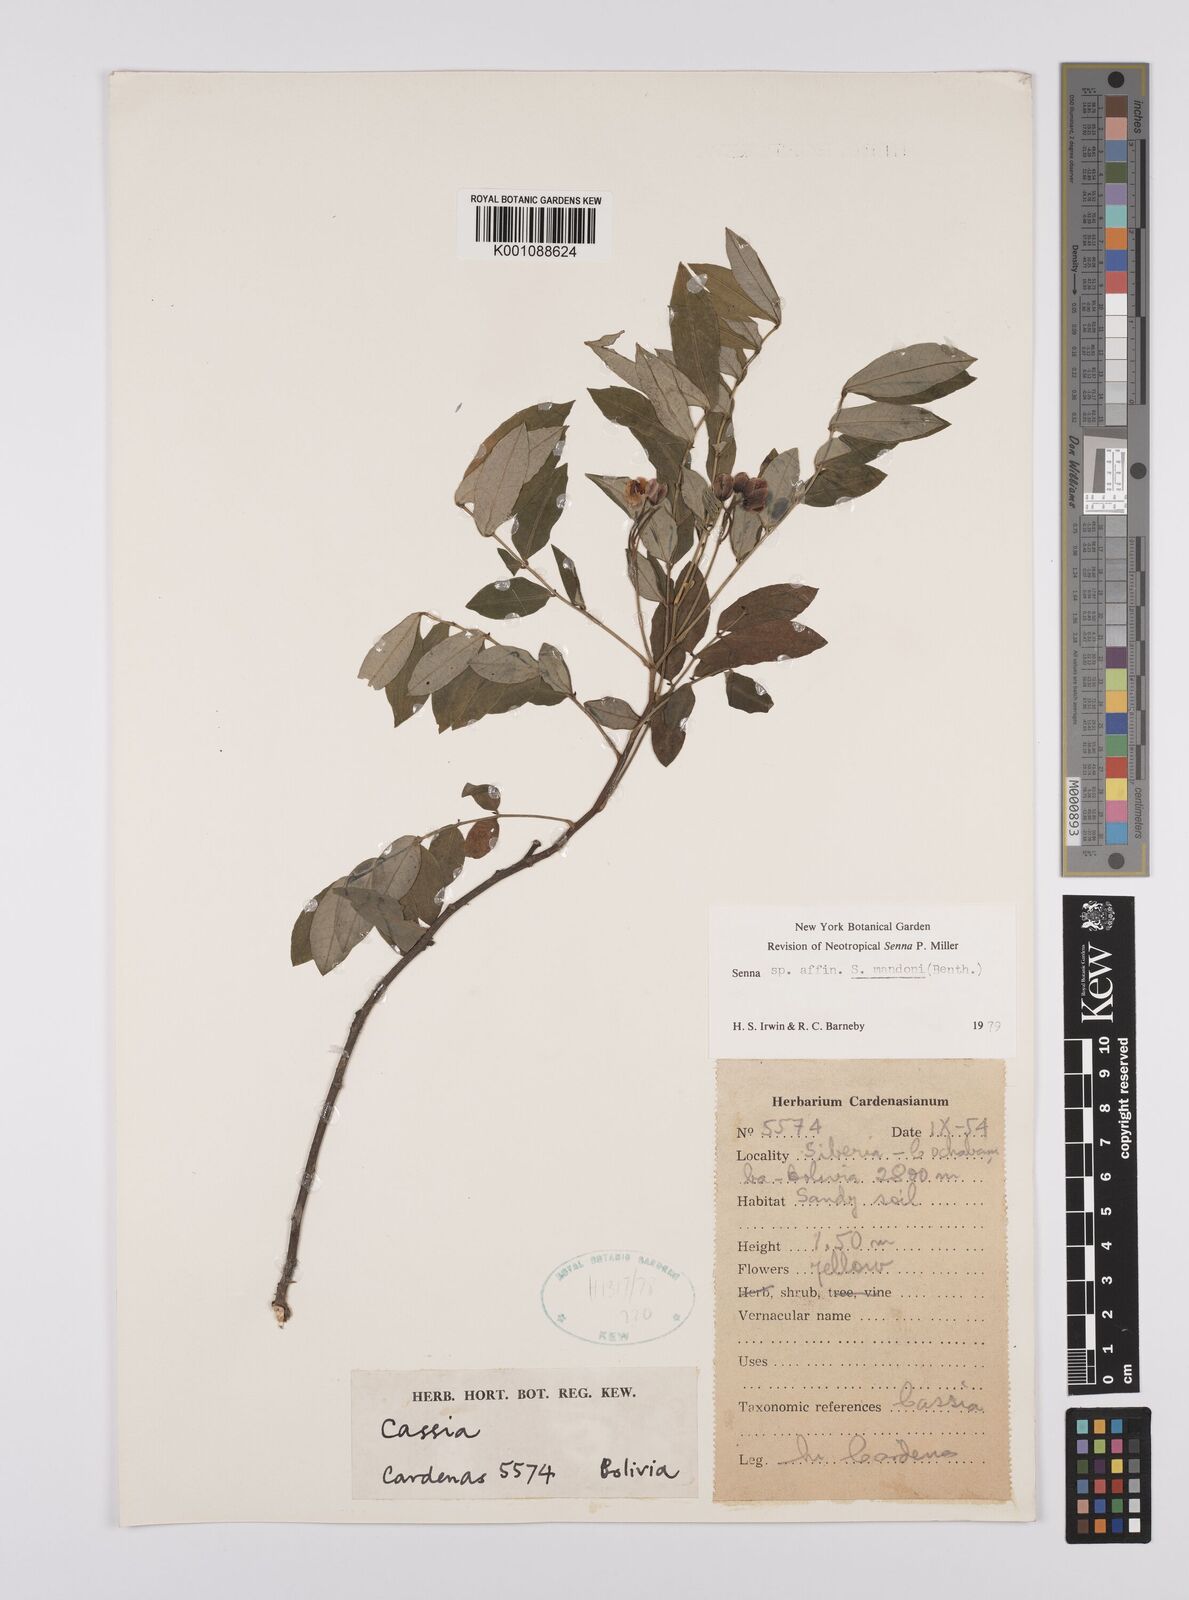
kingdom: Plantae
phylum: Tracheophyta
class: Magnoliopsida
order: Fabales
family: Fabaceae
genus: Senna
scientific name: Senna mandonii
